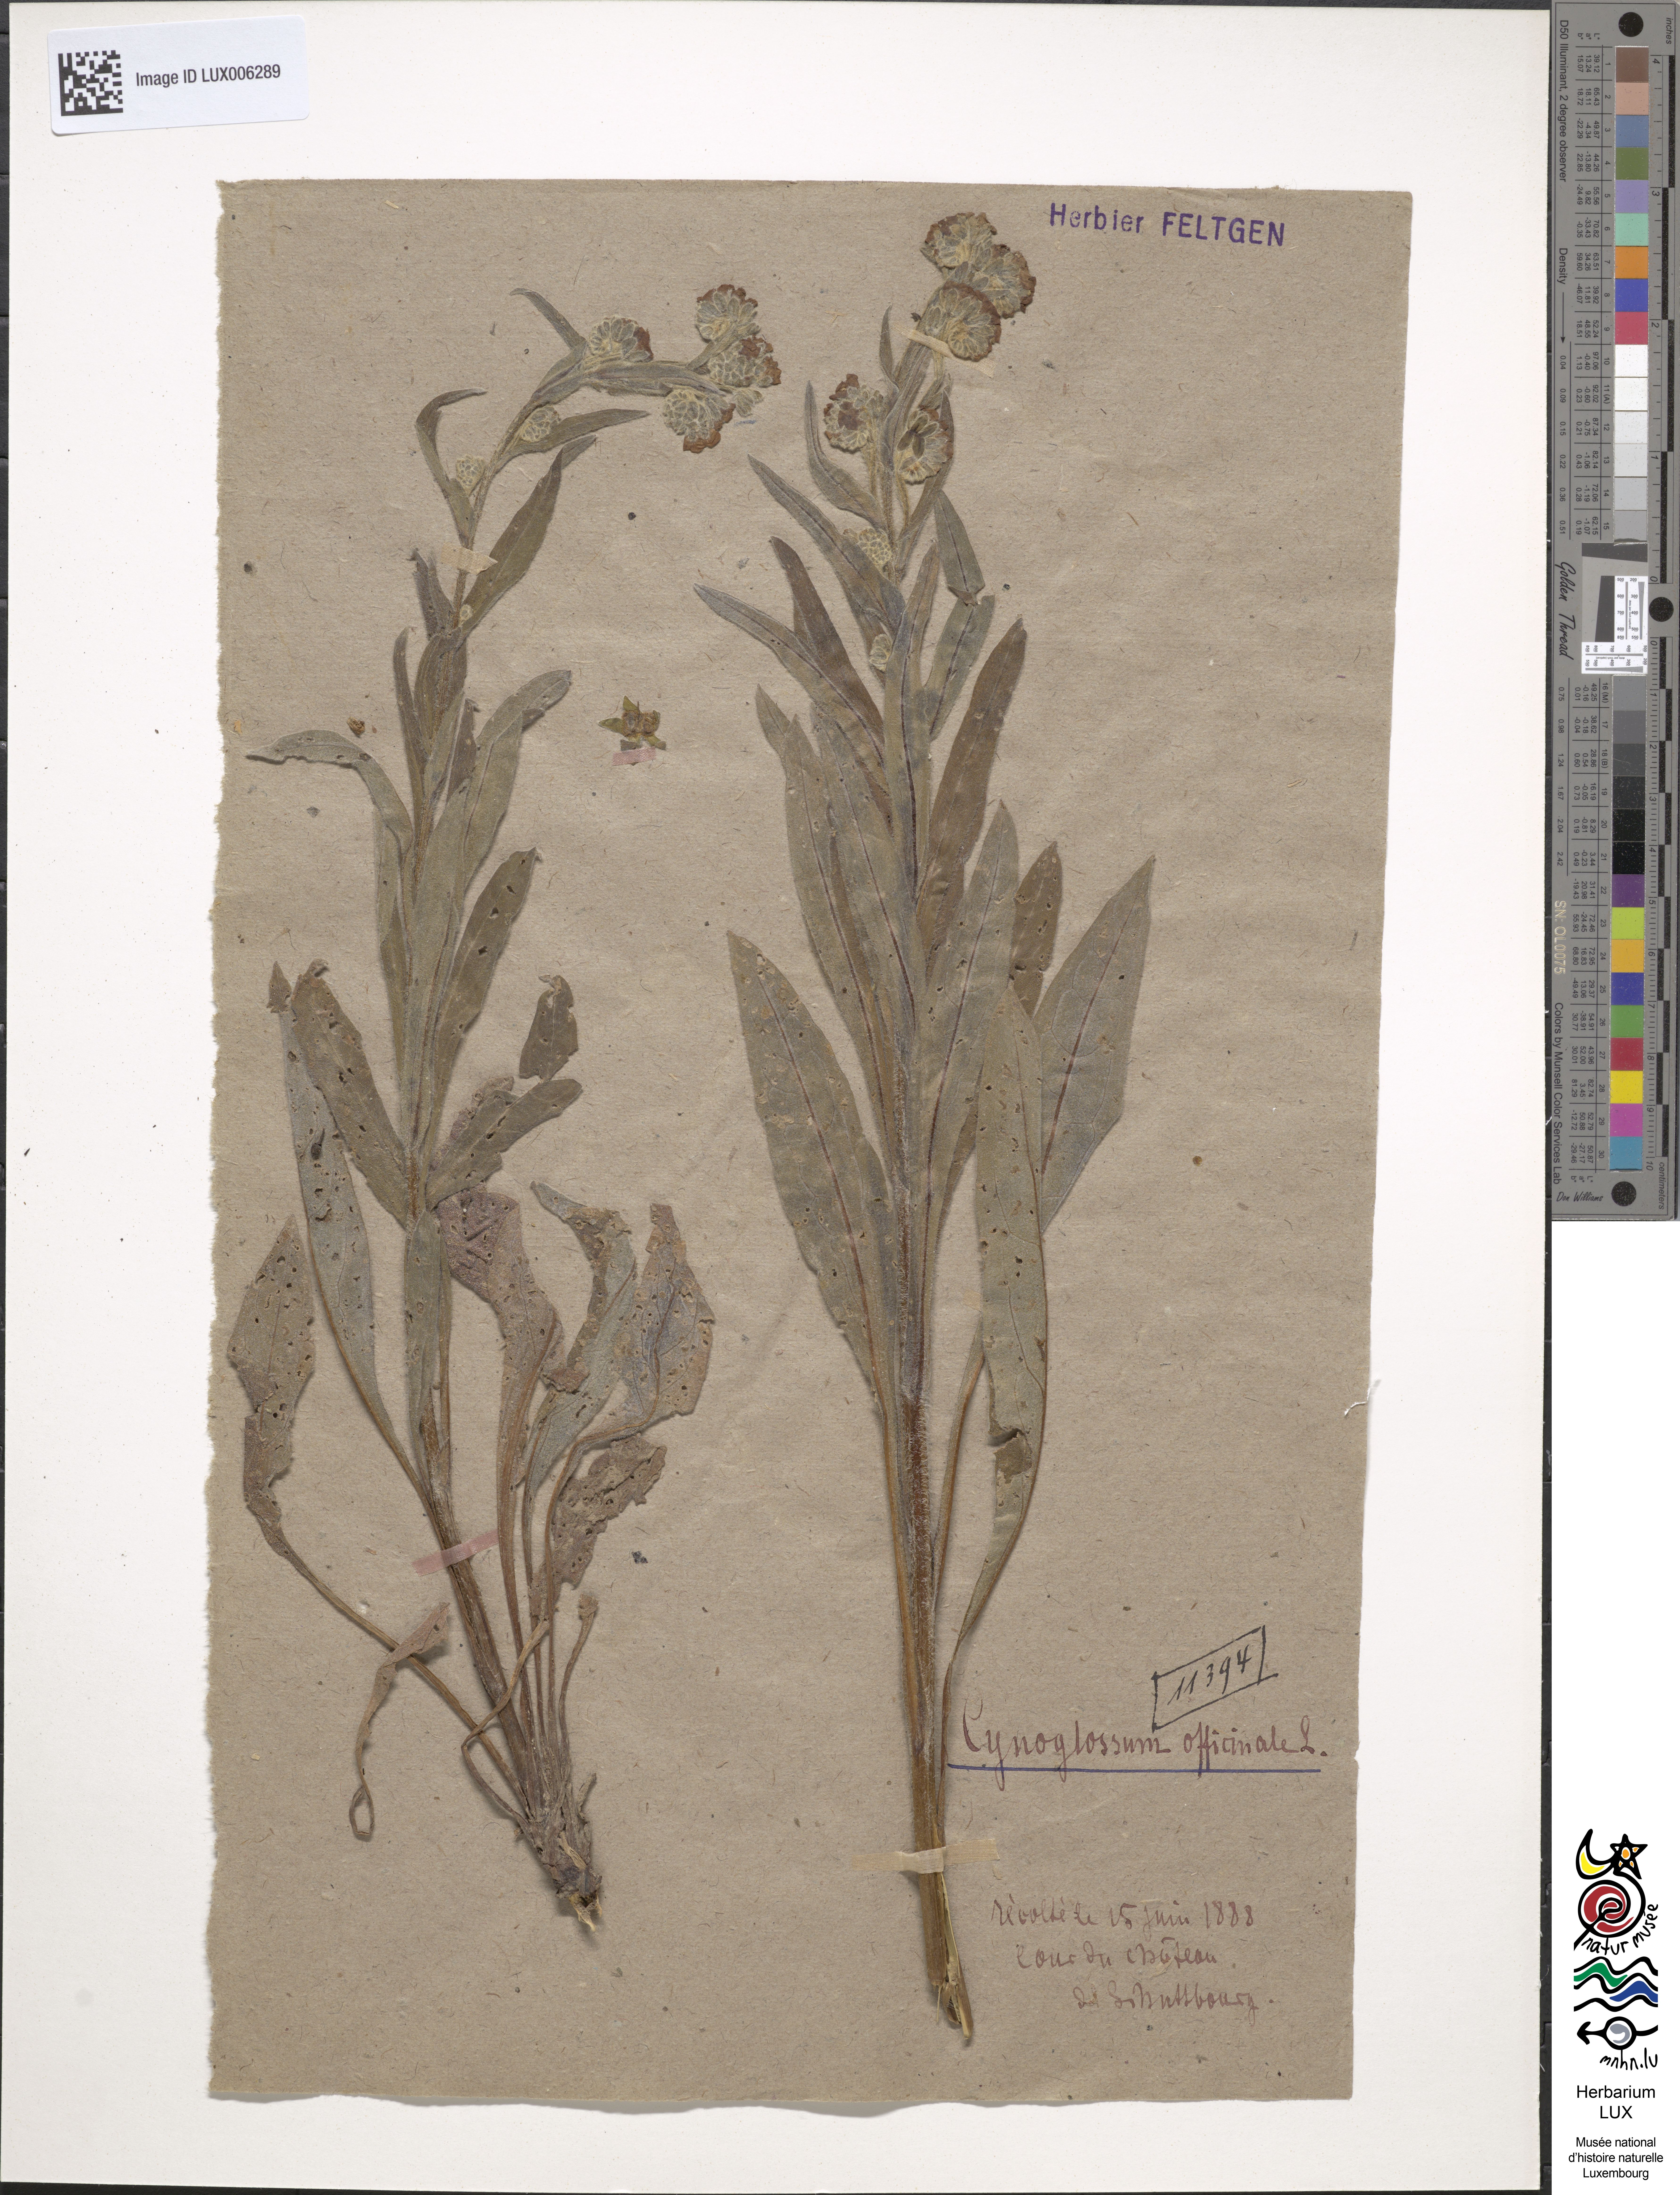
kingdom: Plantae
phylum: Tracheophyta
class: Magnoliopsida
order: Boraginales
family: Boraginaceae
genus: Cynoglossum
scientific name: Cynoglossum officinale
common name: Hound's-tongue
